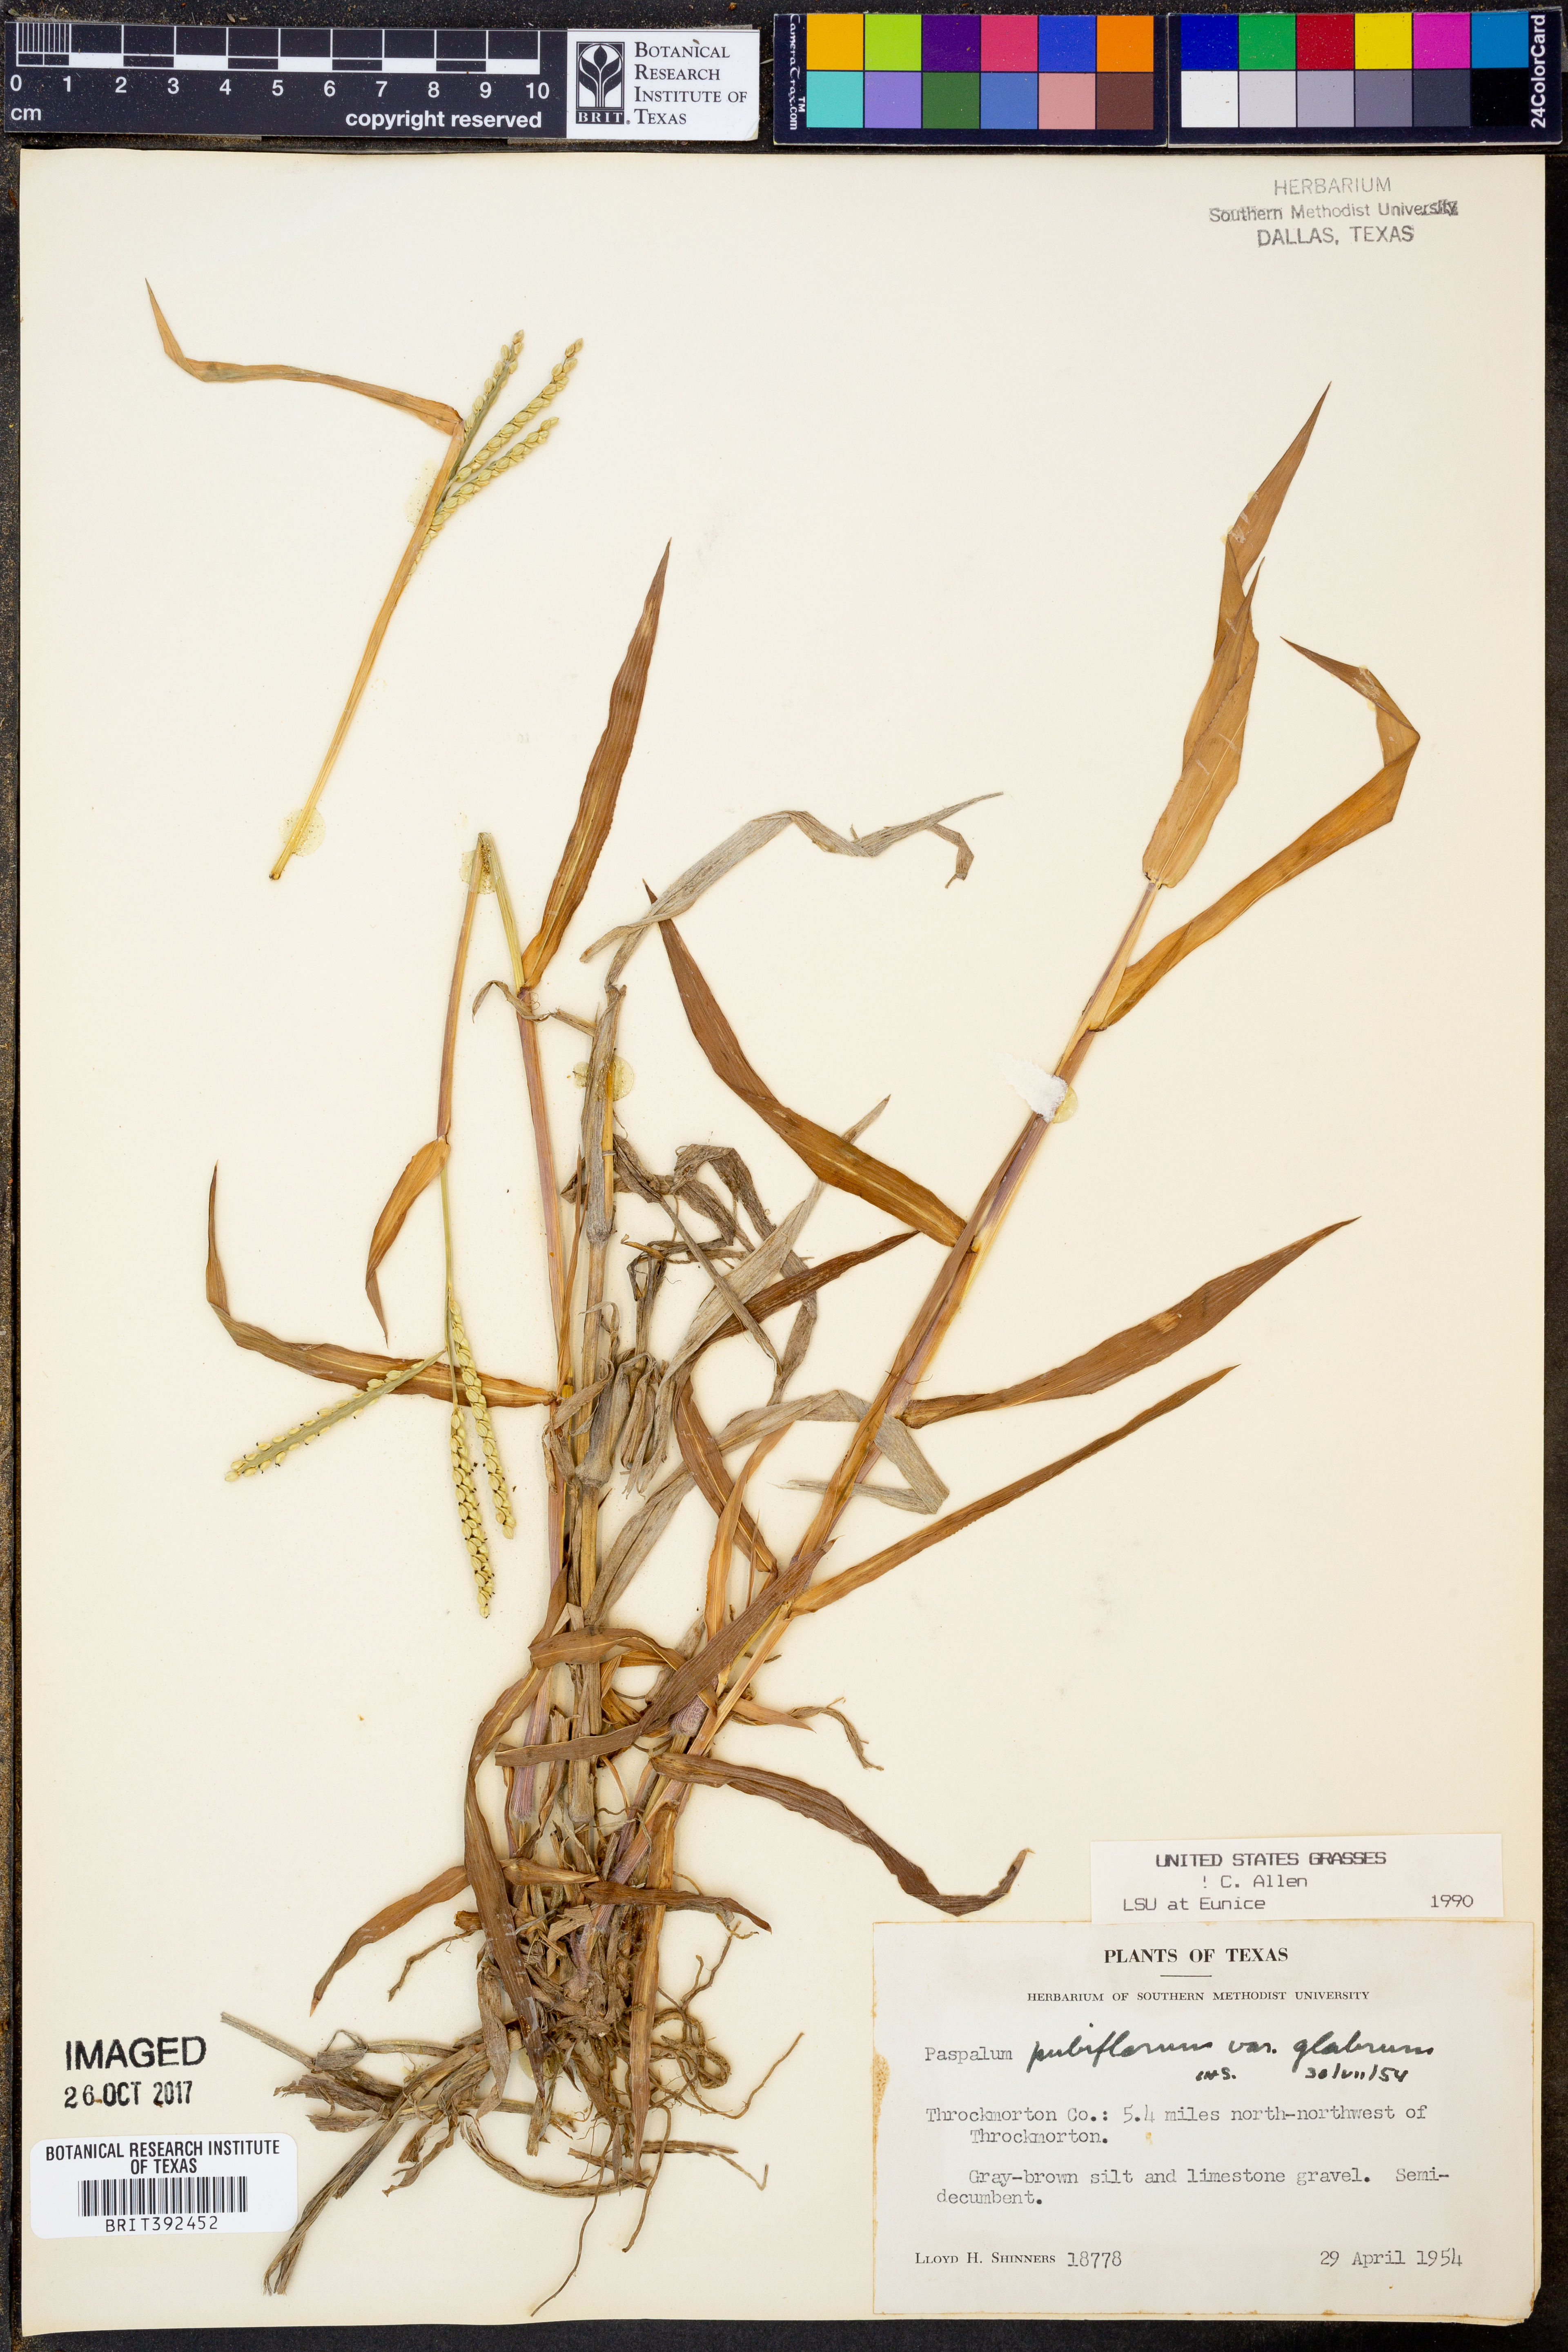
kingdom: Plantae
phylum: Tracheophyta
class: Liliopsida
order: Poales
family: Poaceae
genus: Paspalum
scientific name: Paspalum pubiflorum
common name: Hairy-seed paspalum
